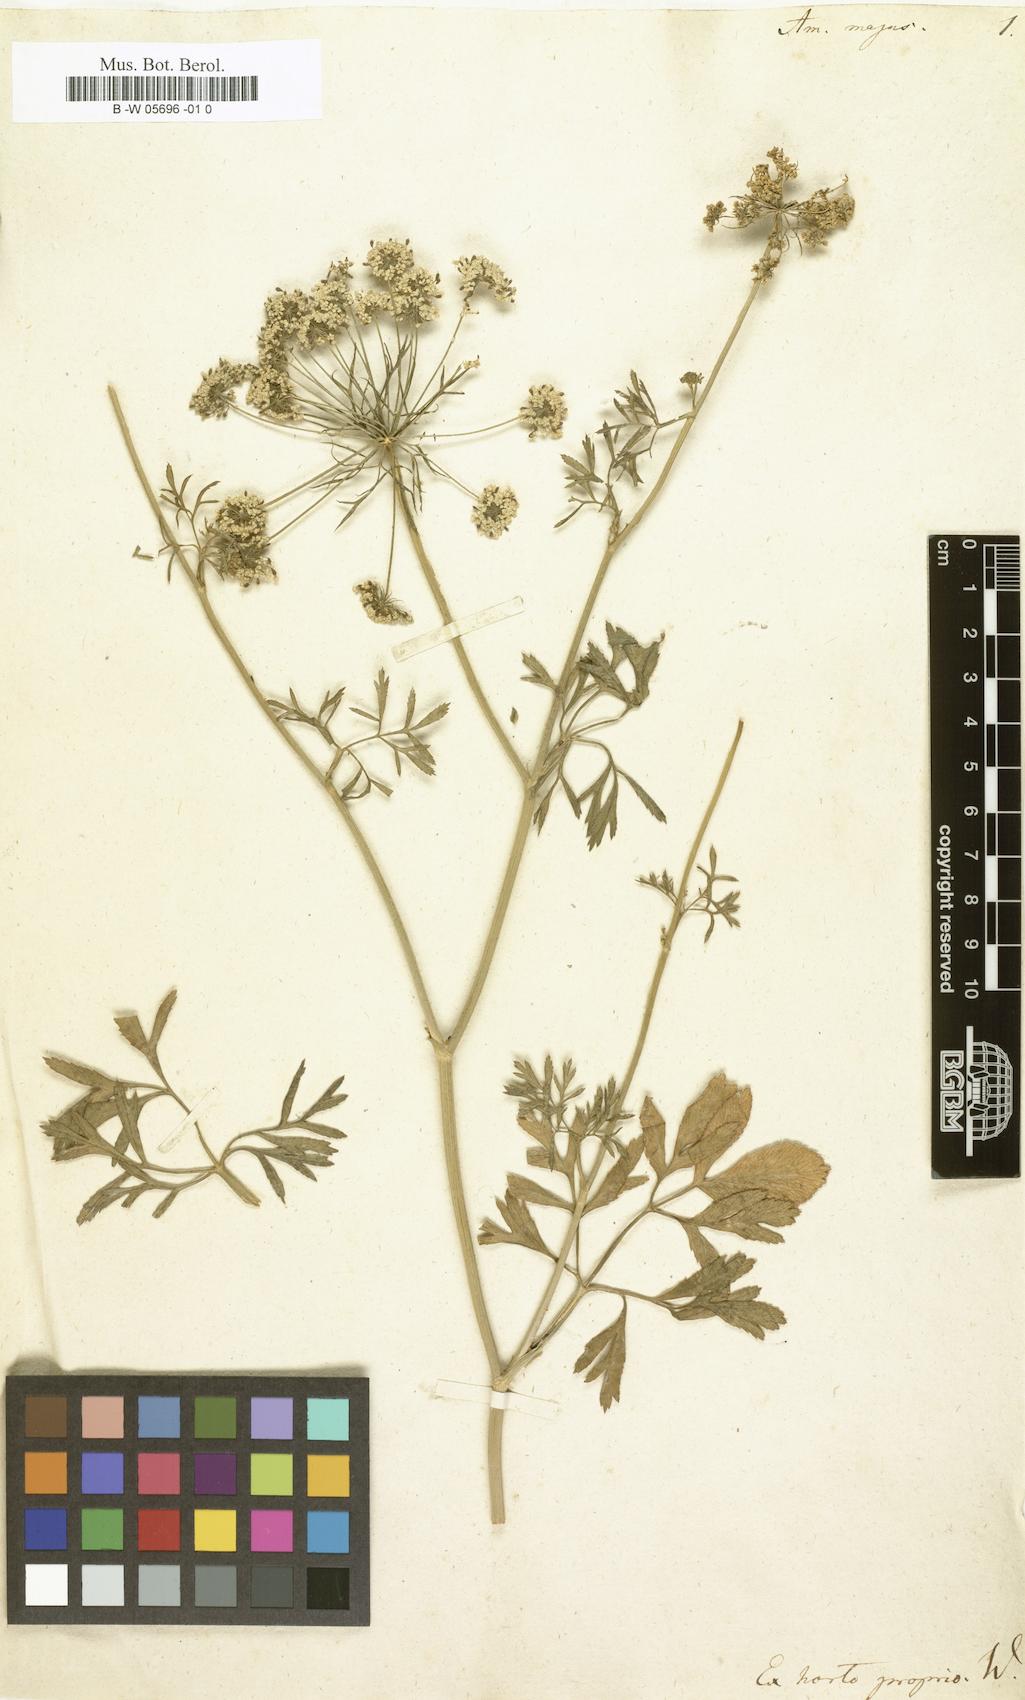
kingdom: Plantae
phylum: Tracheophyta
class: Magnoliopsida
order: Apiales
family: Apiaceae
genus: Ammi
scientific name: Ammi majus
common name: Bullwort
